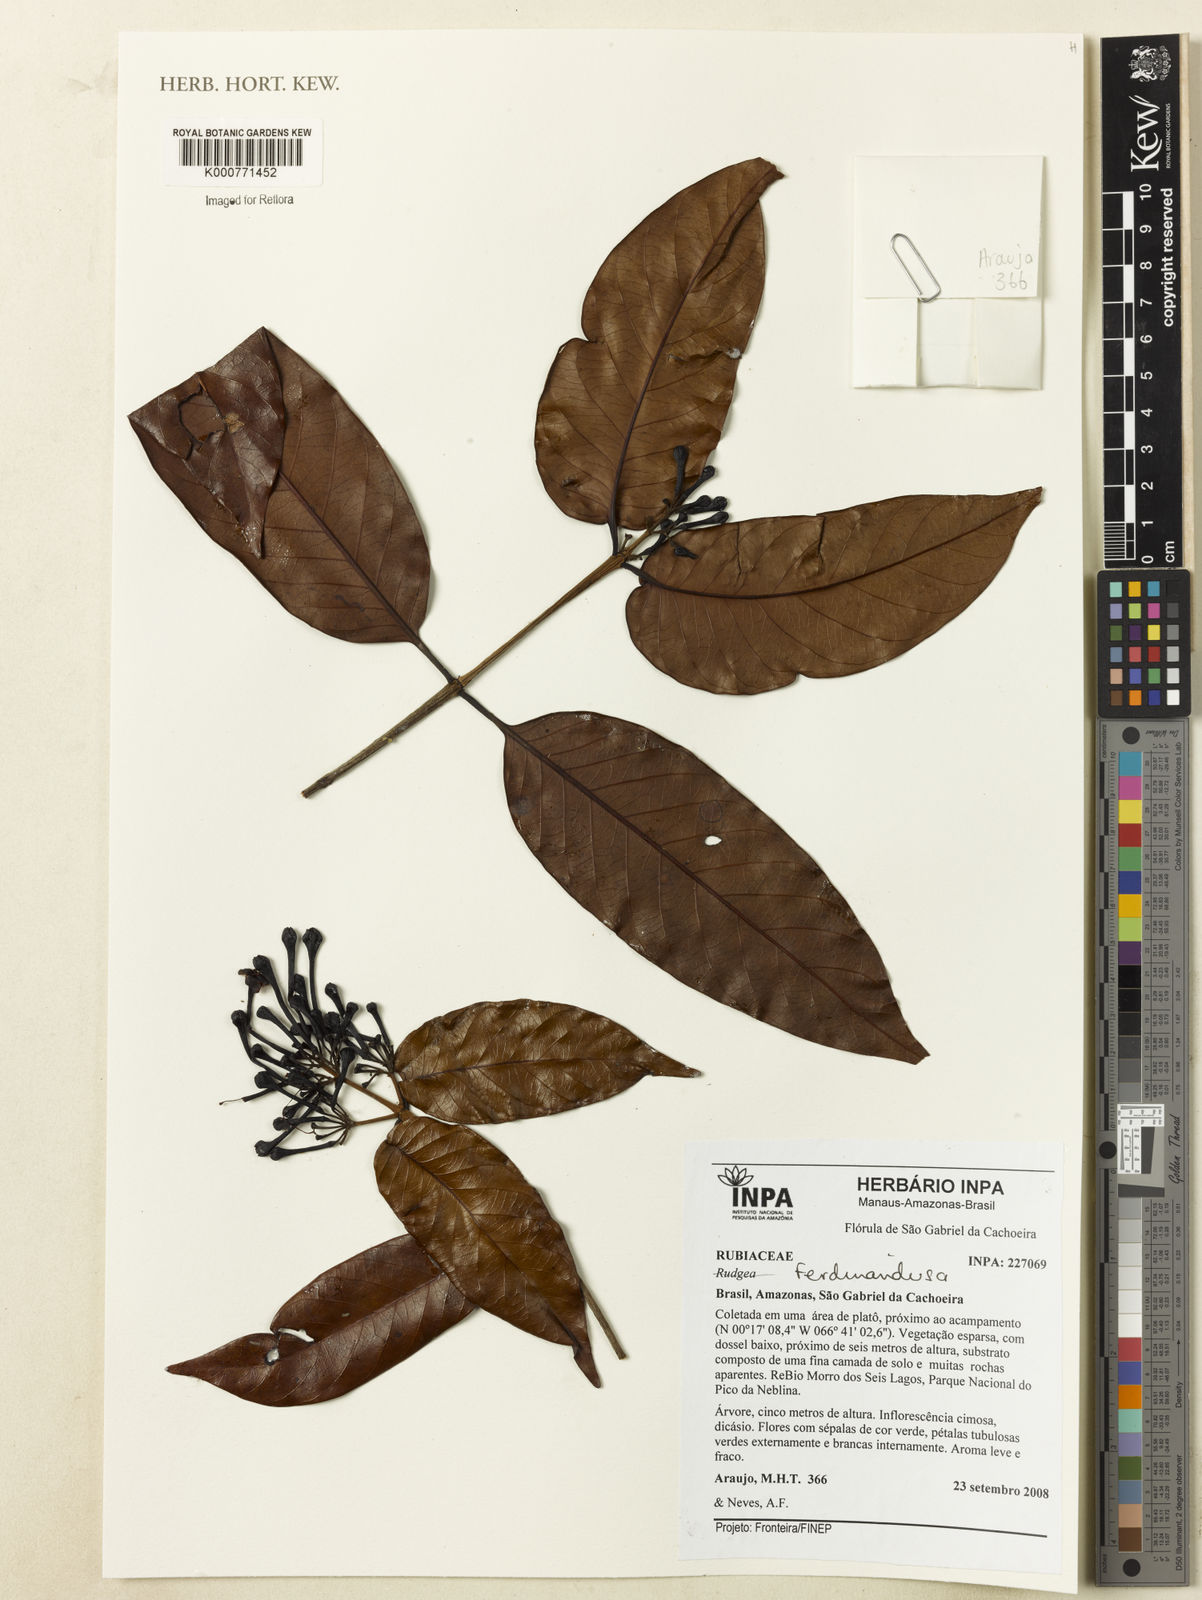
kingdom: Plantae
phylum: Tracheophyta
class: Magnoliopsida
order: Gentianales
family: Rubiaceae
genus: Ferdinandusa
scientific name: Ferdinandusa
